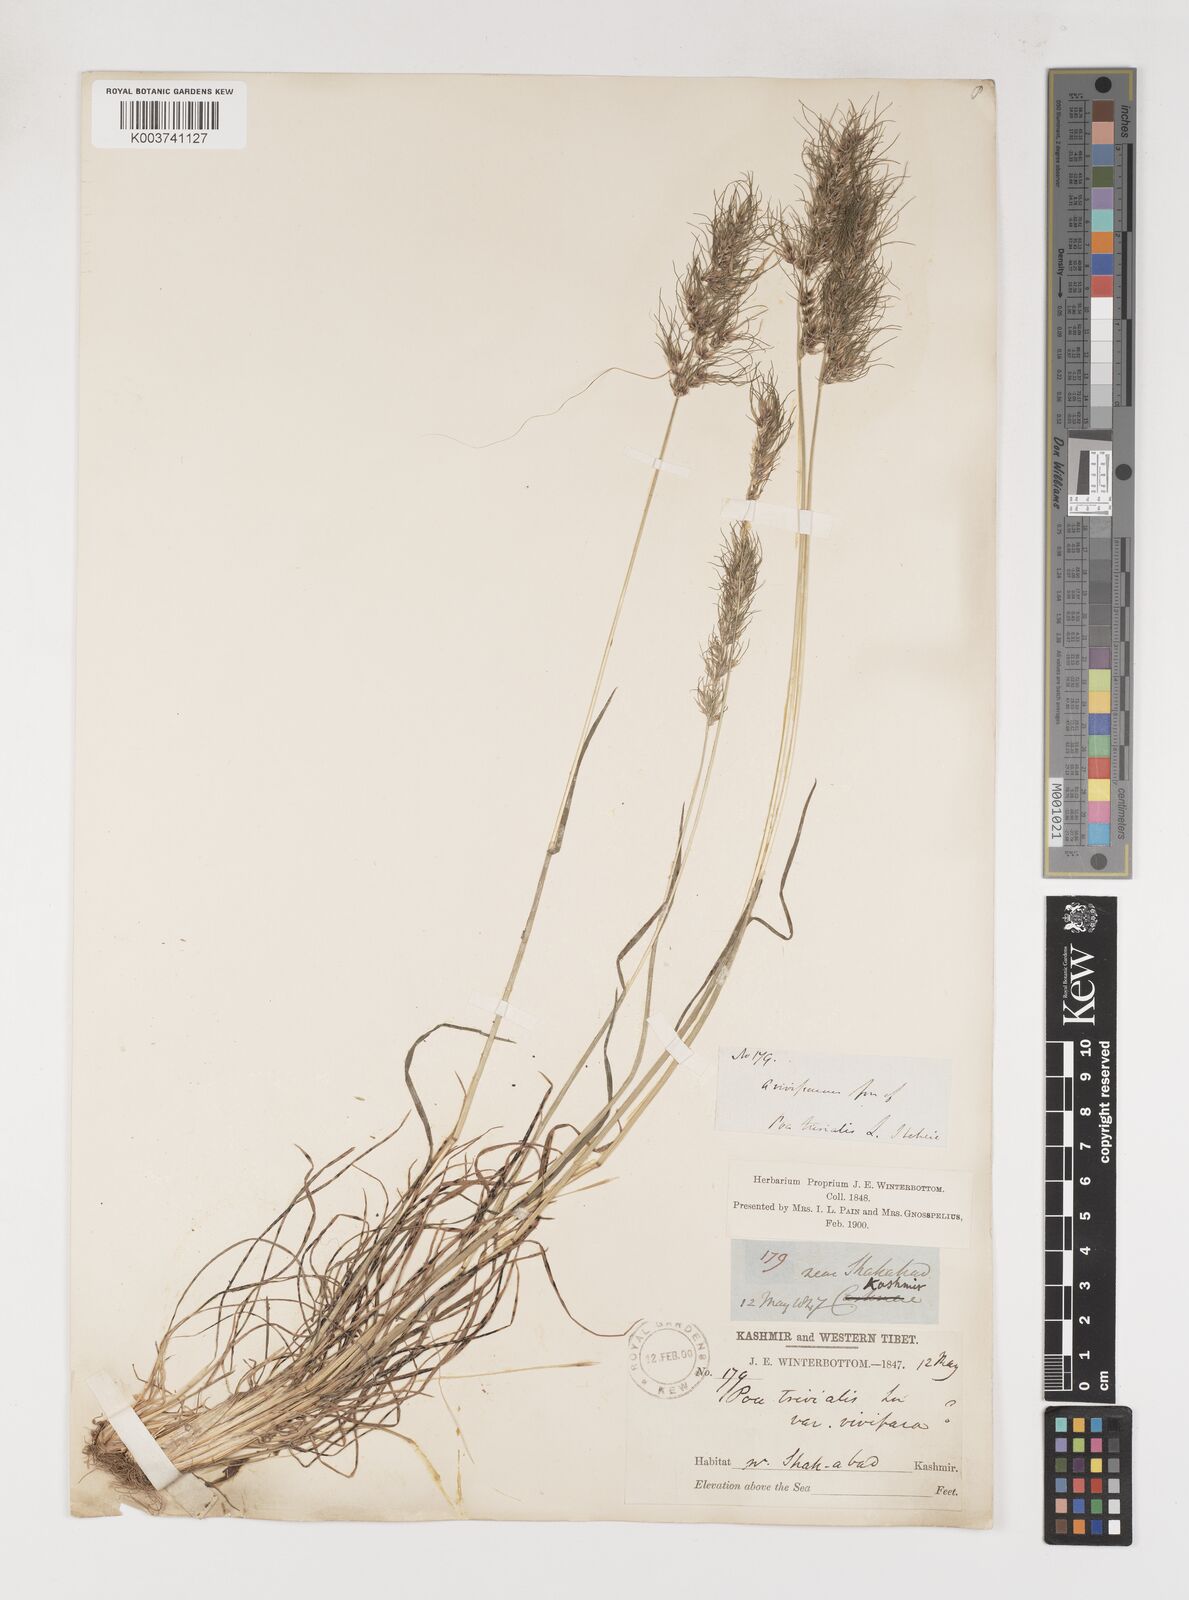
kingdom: Plantae
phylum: Tracheophyta
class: Liliopsida
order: Poales
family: Poaceae
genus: Poa
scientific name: Poa bulbosa
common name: Bulbous bluegrass
